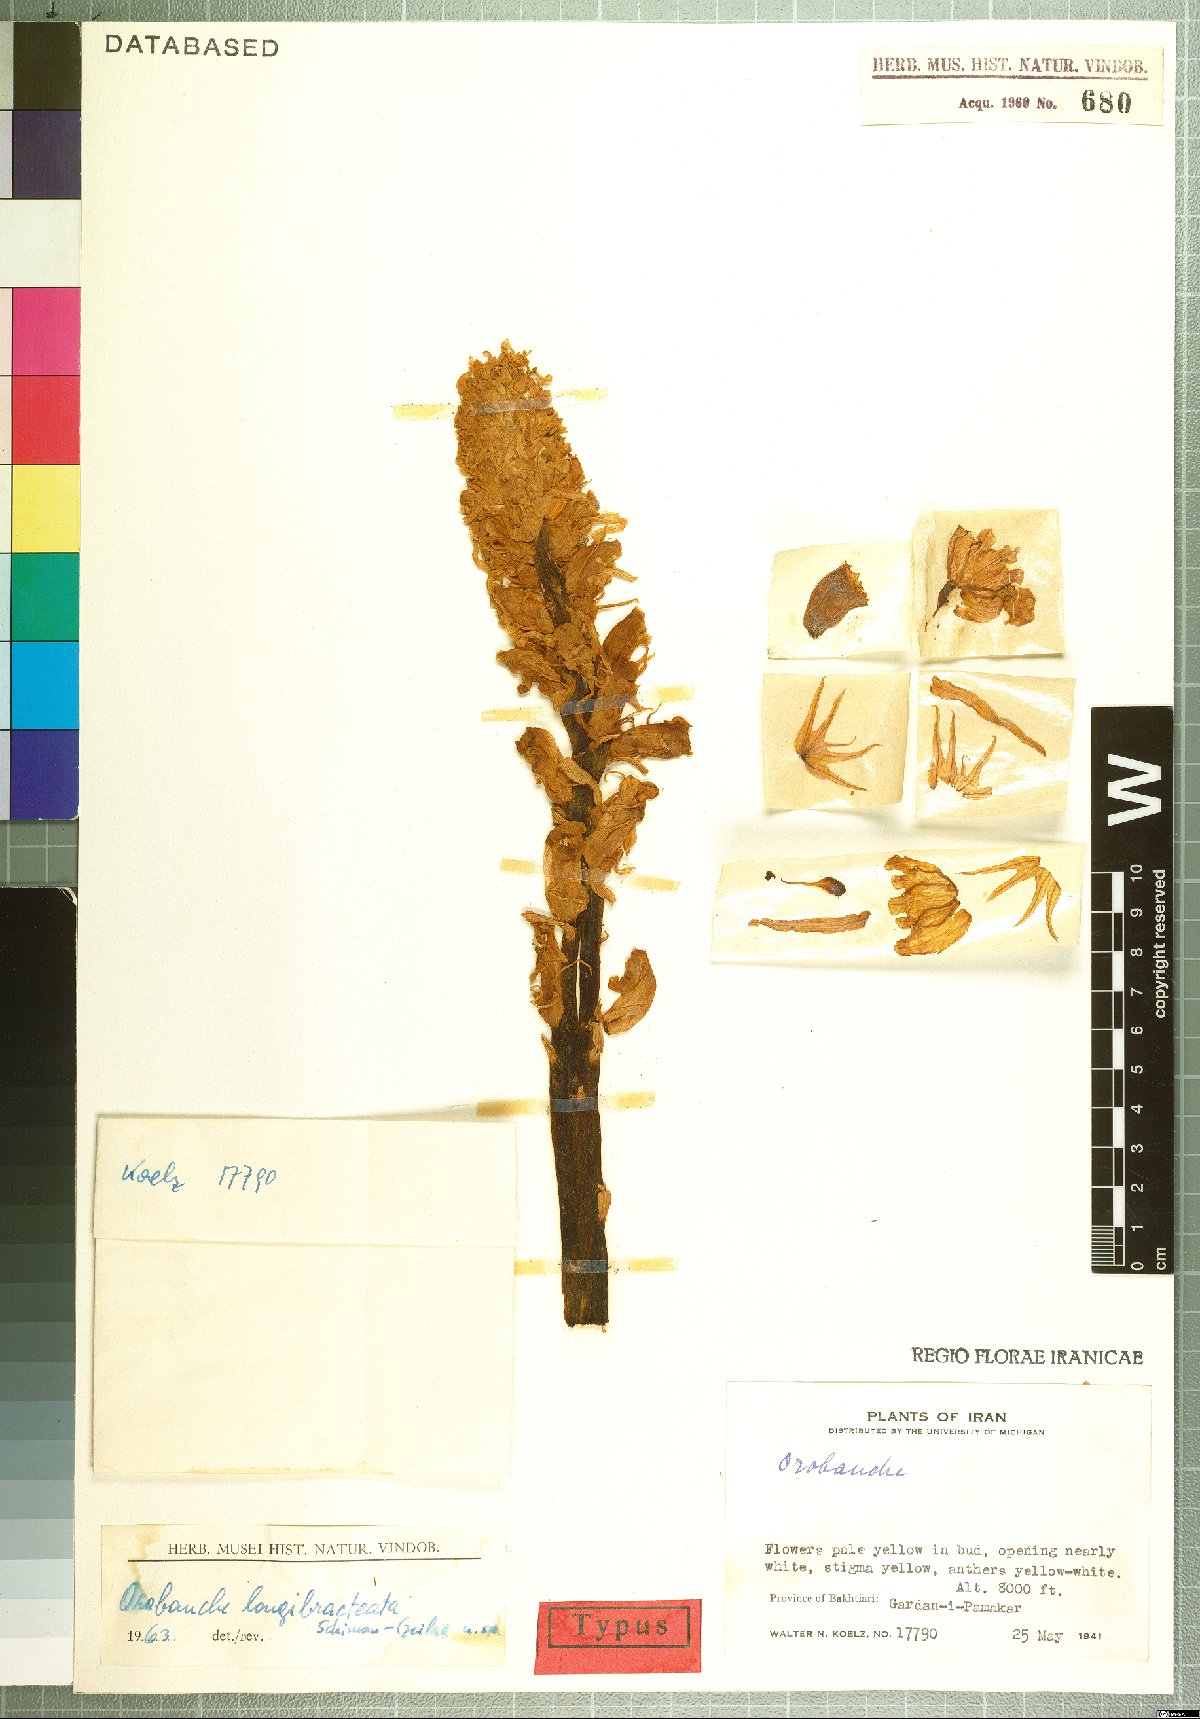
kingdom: Plantae
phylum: Tracheophyta
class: Magnoliopsida
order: Lamiales
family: Orobanchaceae
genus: Orobanche
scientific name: Orobanche longibracteata
